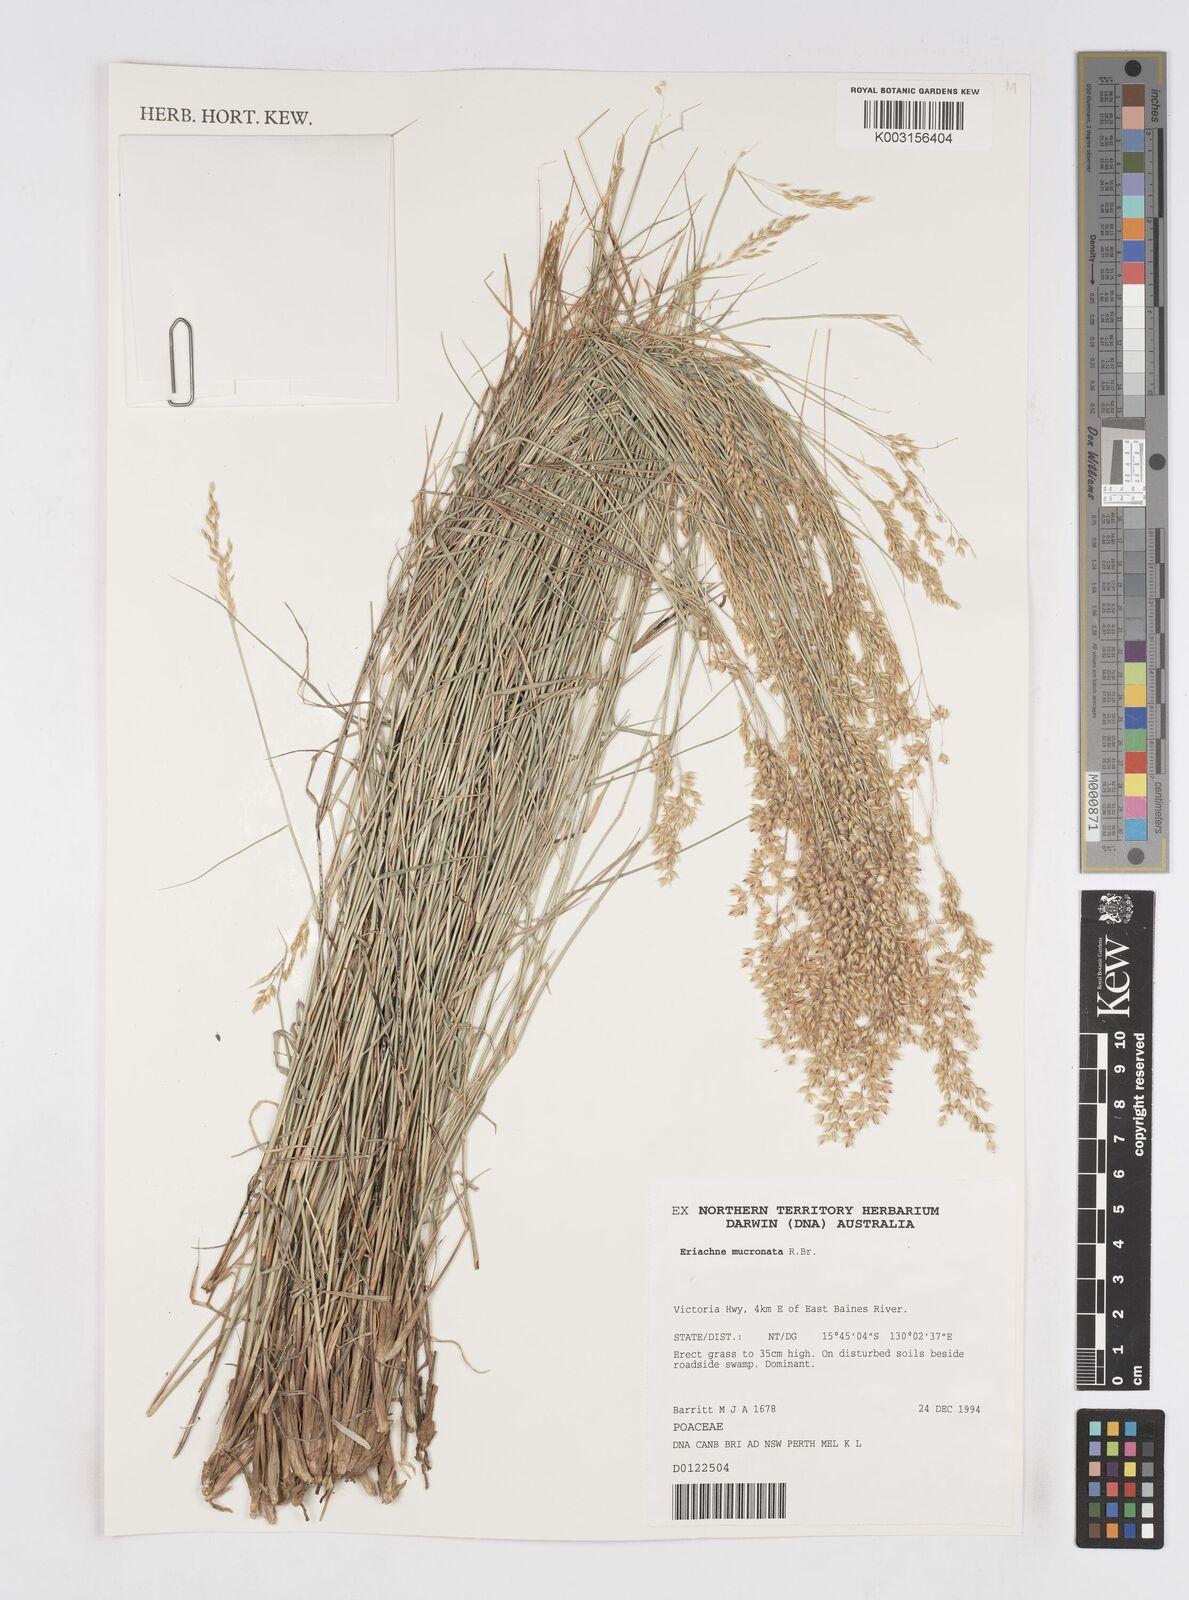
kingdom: Plantae
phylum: Tracheophyta
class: Liliopsida
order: Poales
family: Poaceae
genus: Eriachne
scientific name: Eriachne mucronata
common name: Mountain wanderrie grass
